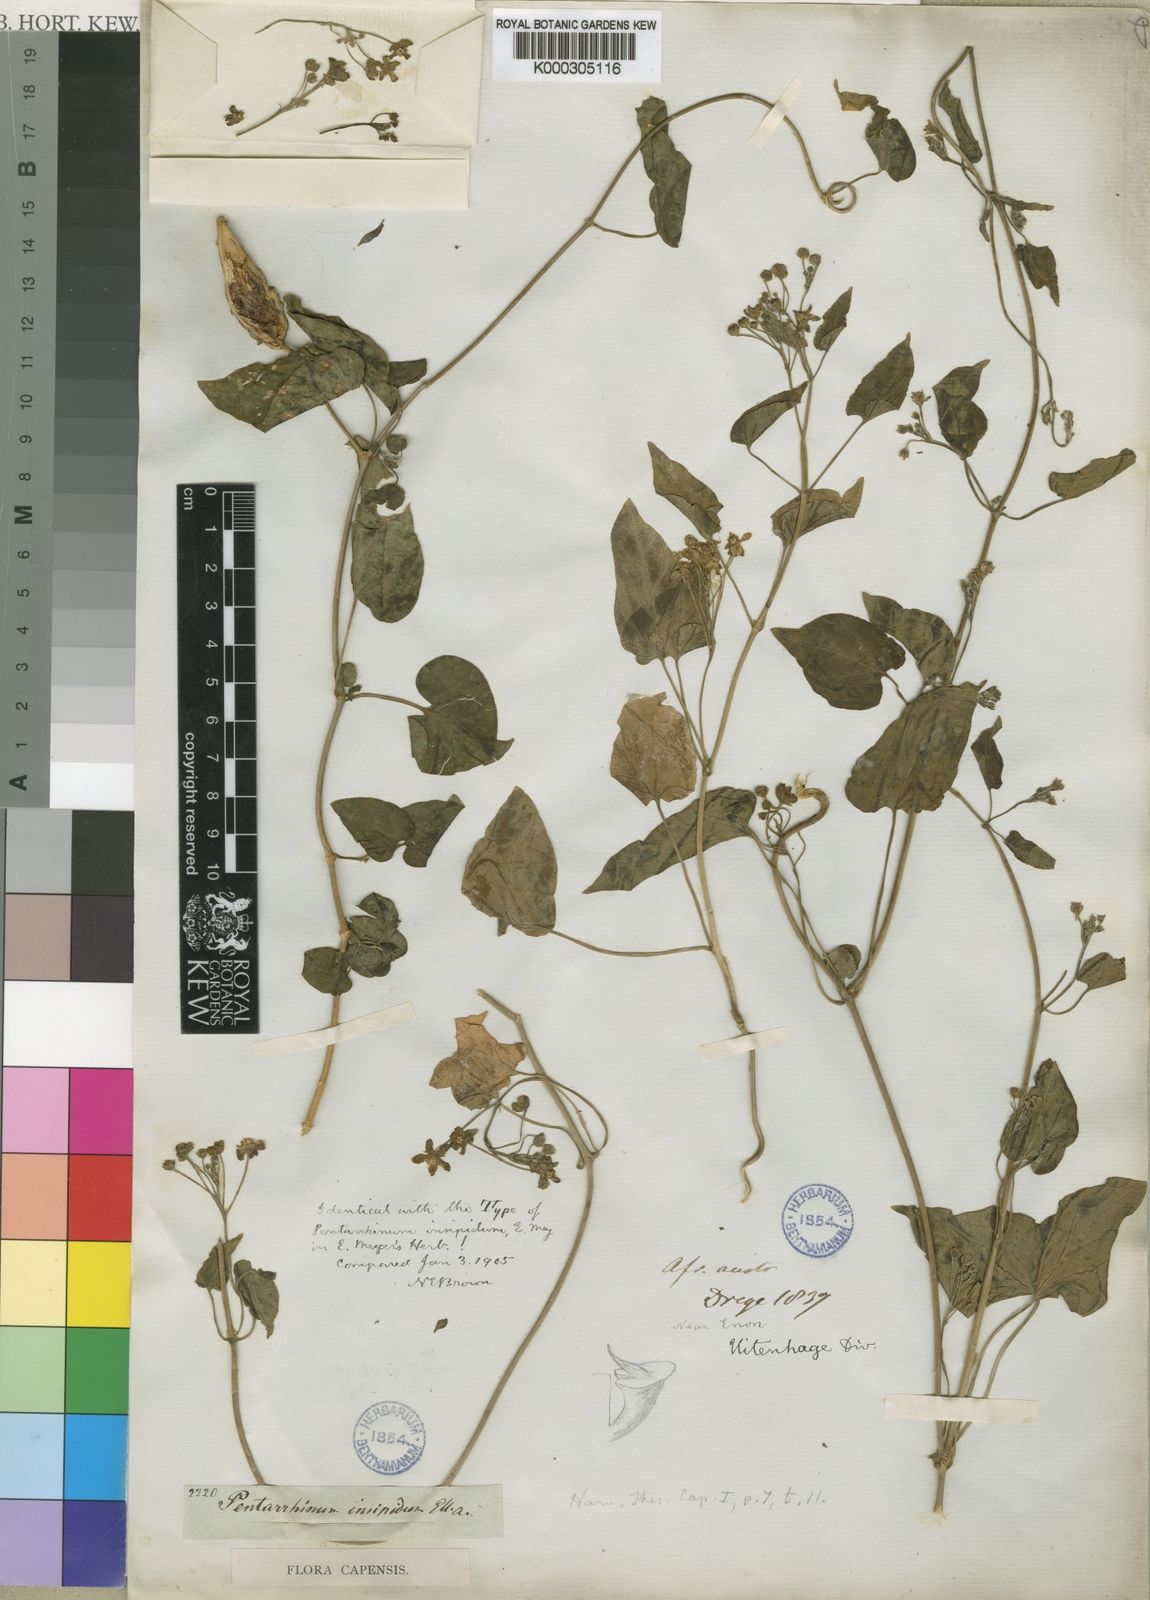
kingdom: Plantae
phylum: Tracheophyta
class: Magnoliopsida
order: Gentianales
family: Apocynaceae
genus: Cynanchum
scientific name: Cynanchum insipidum
